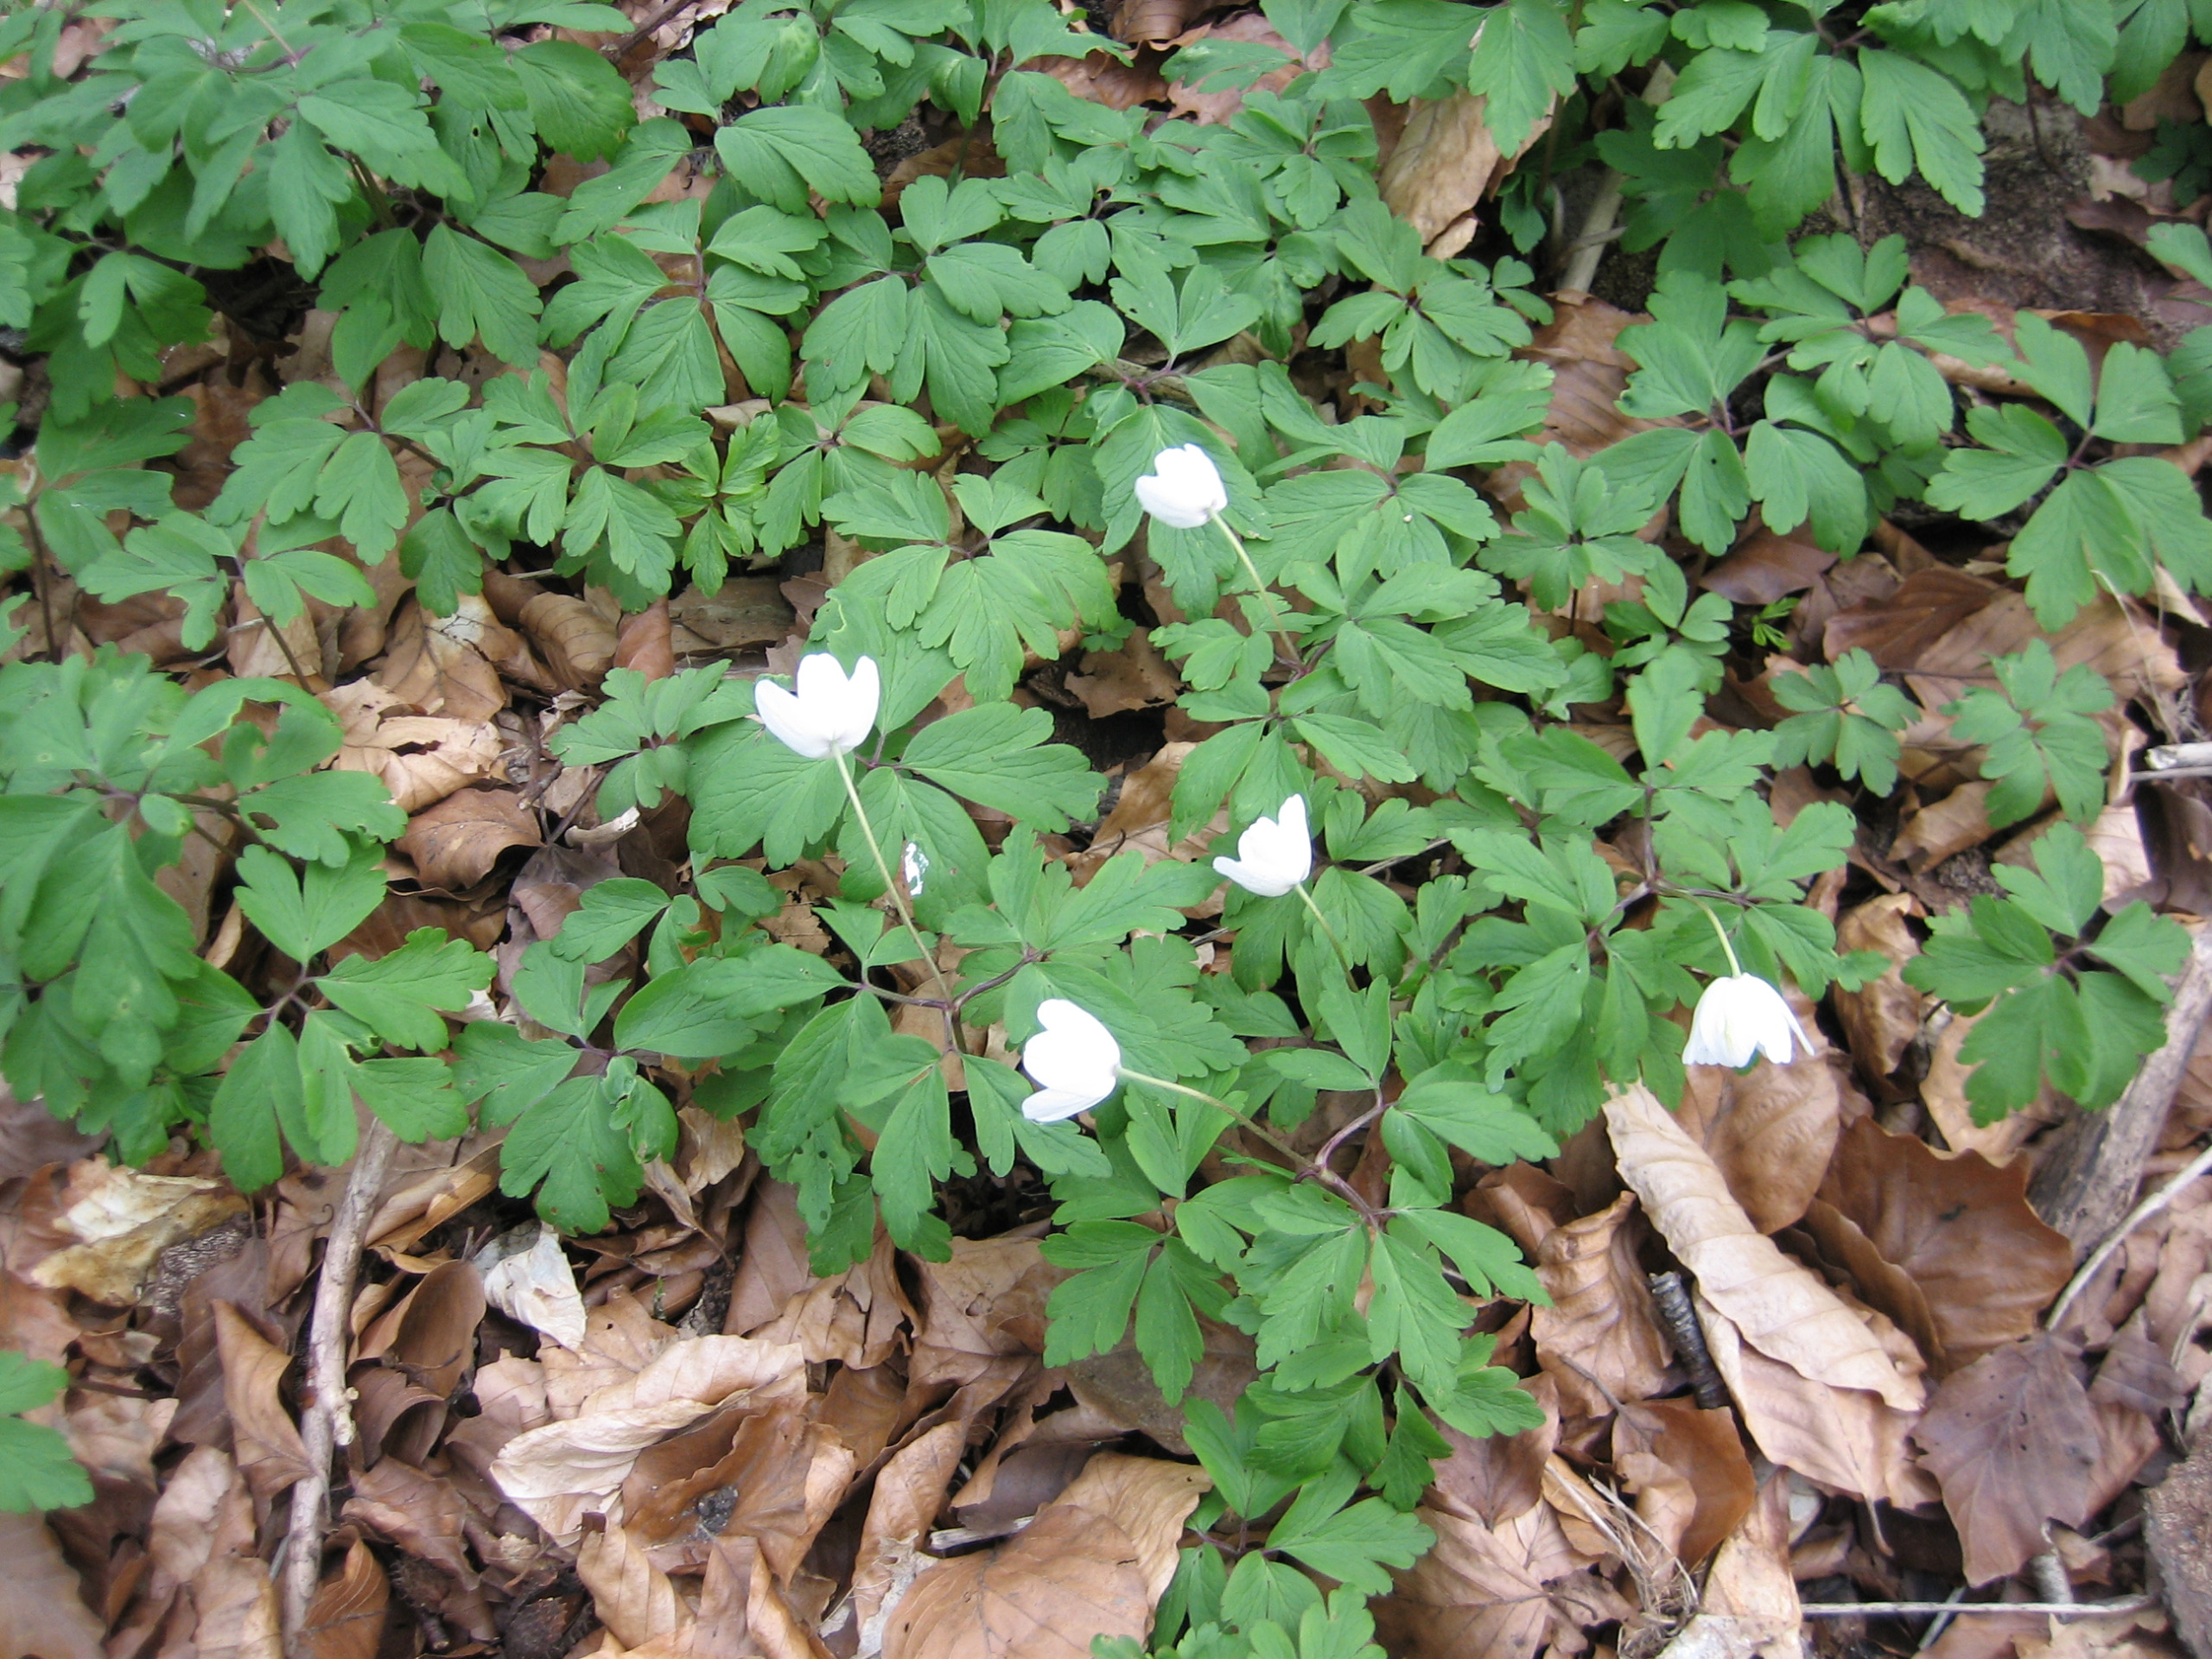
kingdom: Plantae
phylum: Tracheophyta
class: Magnoliopsida
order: Ranunculales
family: Ranunculaceae
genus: Anemone
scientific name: Anemone nemorosa
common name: Hvid anemone
